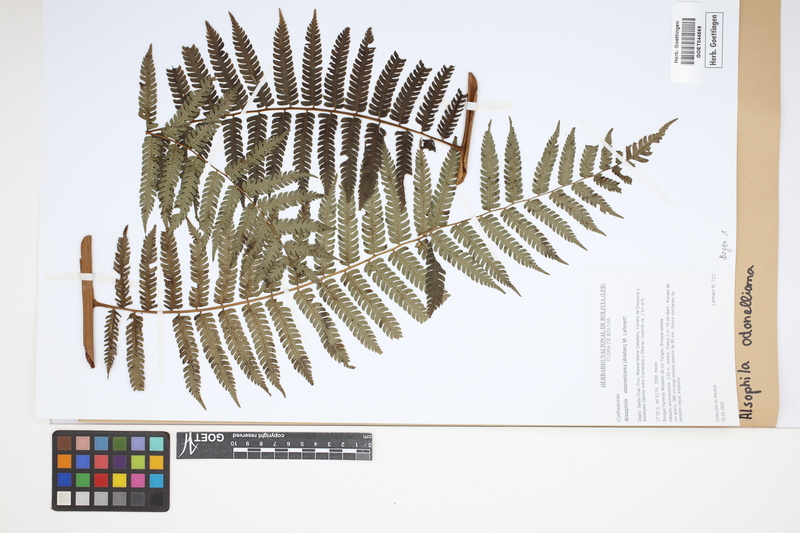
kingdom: Plantae
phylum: Tracheophyta
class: Polypodiopsida
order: Cyatheales
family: Cyatheaceae
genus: Alsophila
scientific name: Alsophila odonelliana
